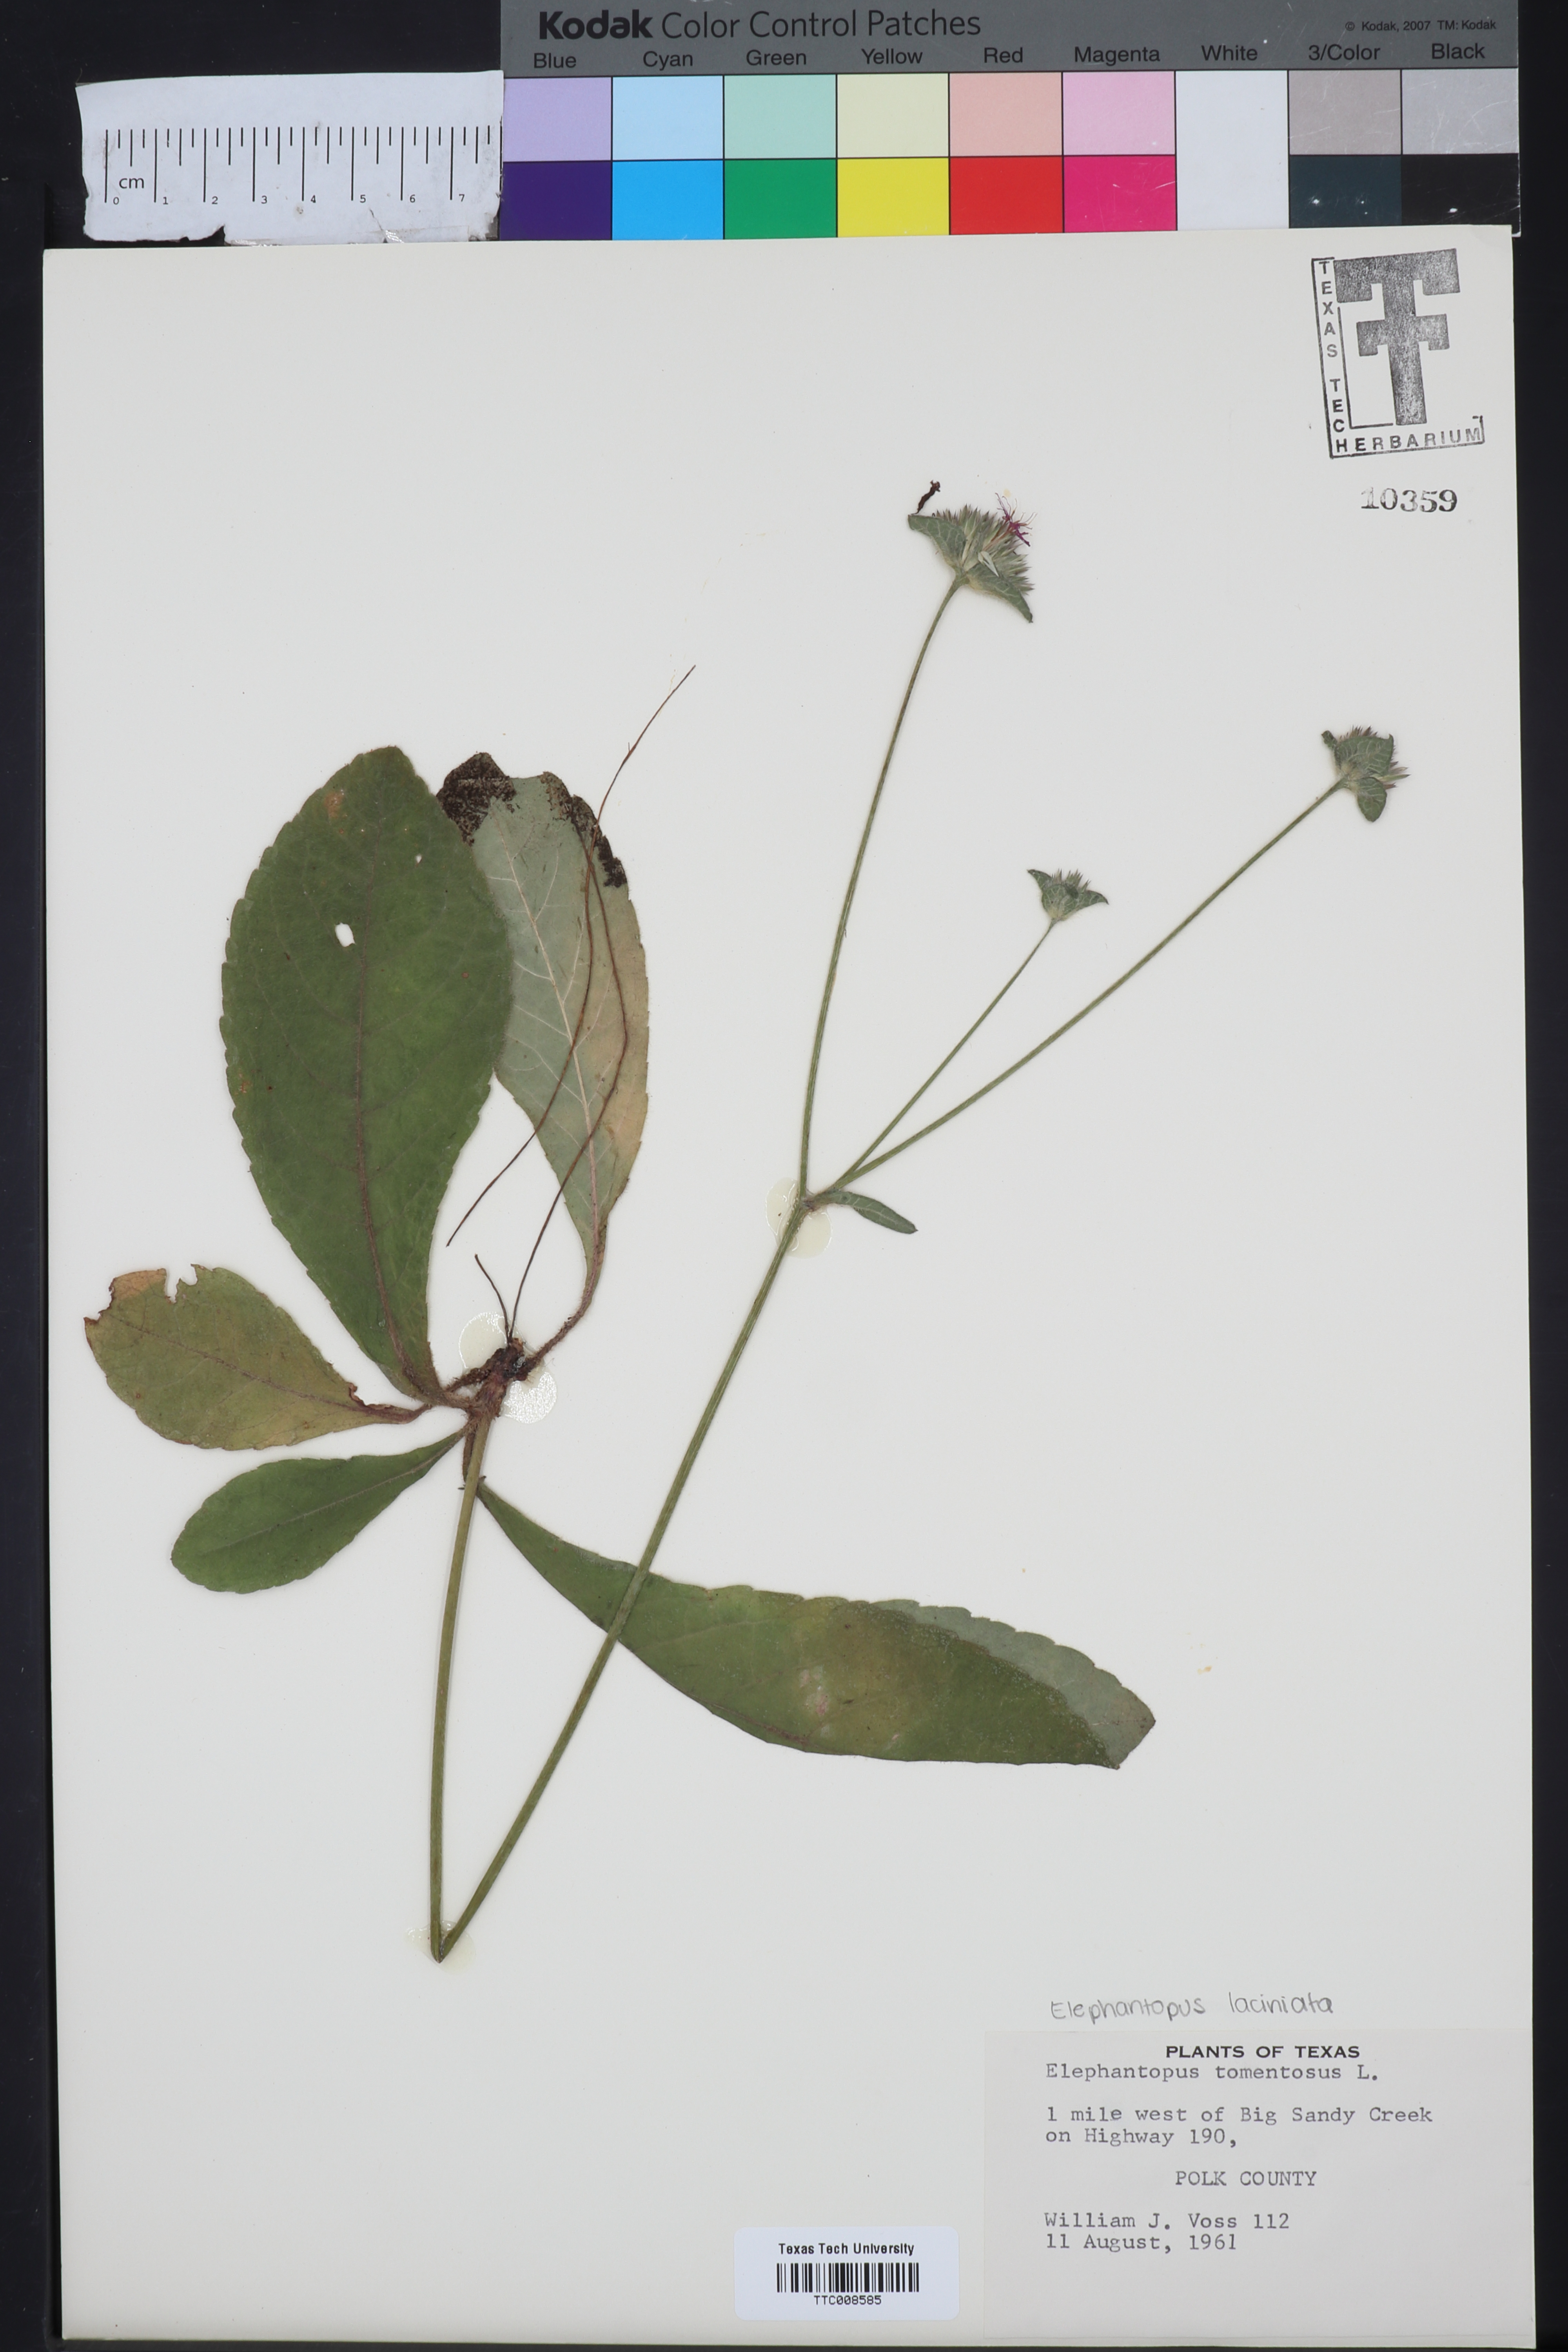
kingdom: Plantae
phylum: Tracheophyta
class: Magnoliopsida
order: Asterales
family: Asteraceae
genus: Elephantopus
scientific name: Elephantopus tomentosus
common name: Tobacco-weed
